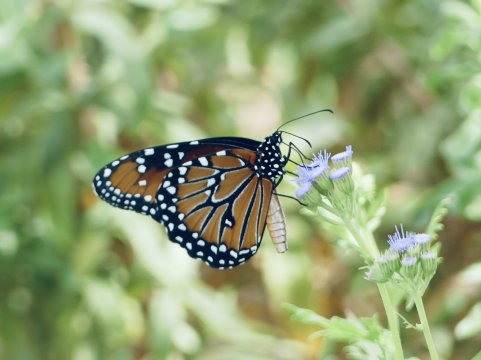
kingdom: Animalia
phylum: Arthropoda
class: Insecta
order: Lepidoptera
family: Nymphalidae
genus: Danaus
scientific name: Danaus gilippus
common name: Queen
